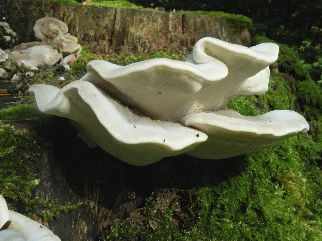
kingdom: Fungi
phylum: Basidiomycota
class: Agaricomycetes
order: Polyporales
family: Dacryobolaceae
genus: Postia
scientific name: Postia tephroleuca
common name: grålig kødporesvamp
